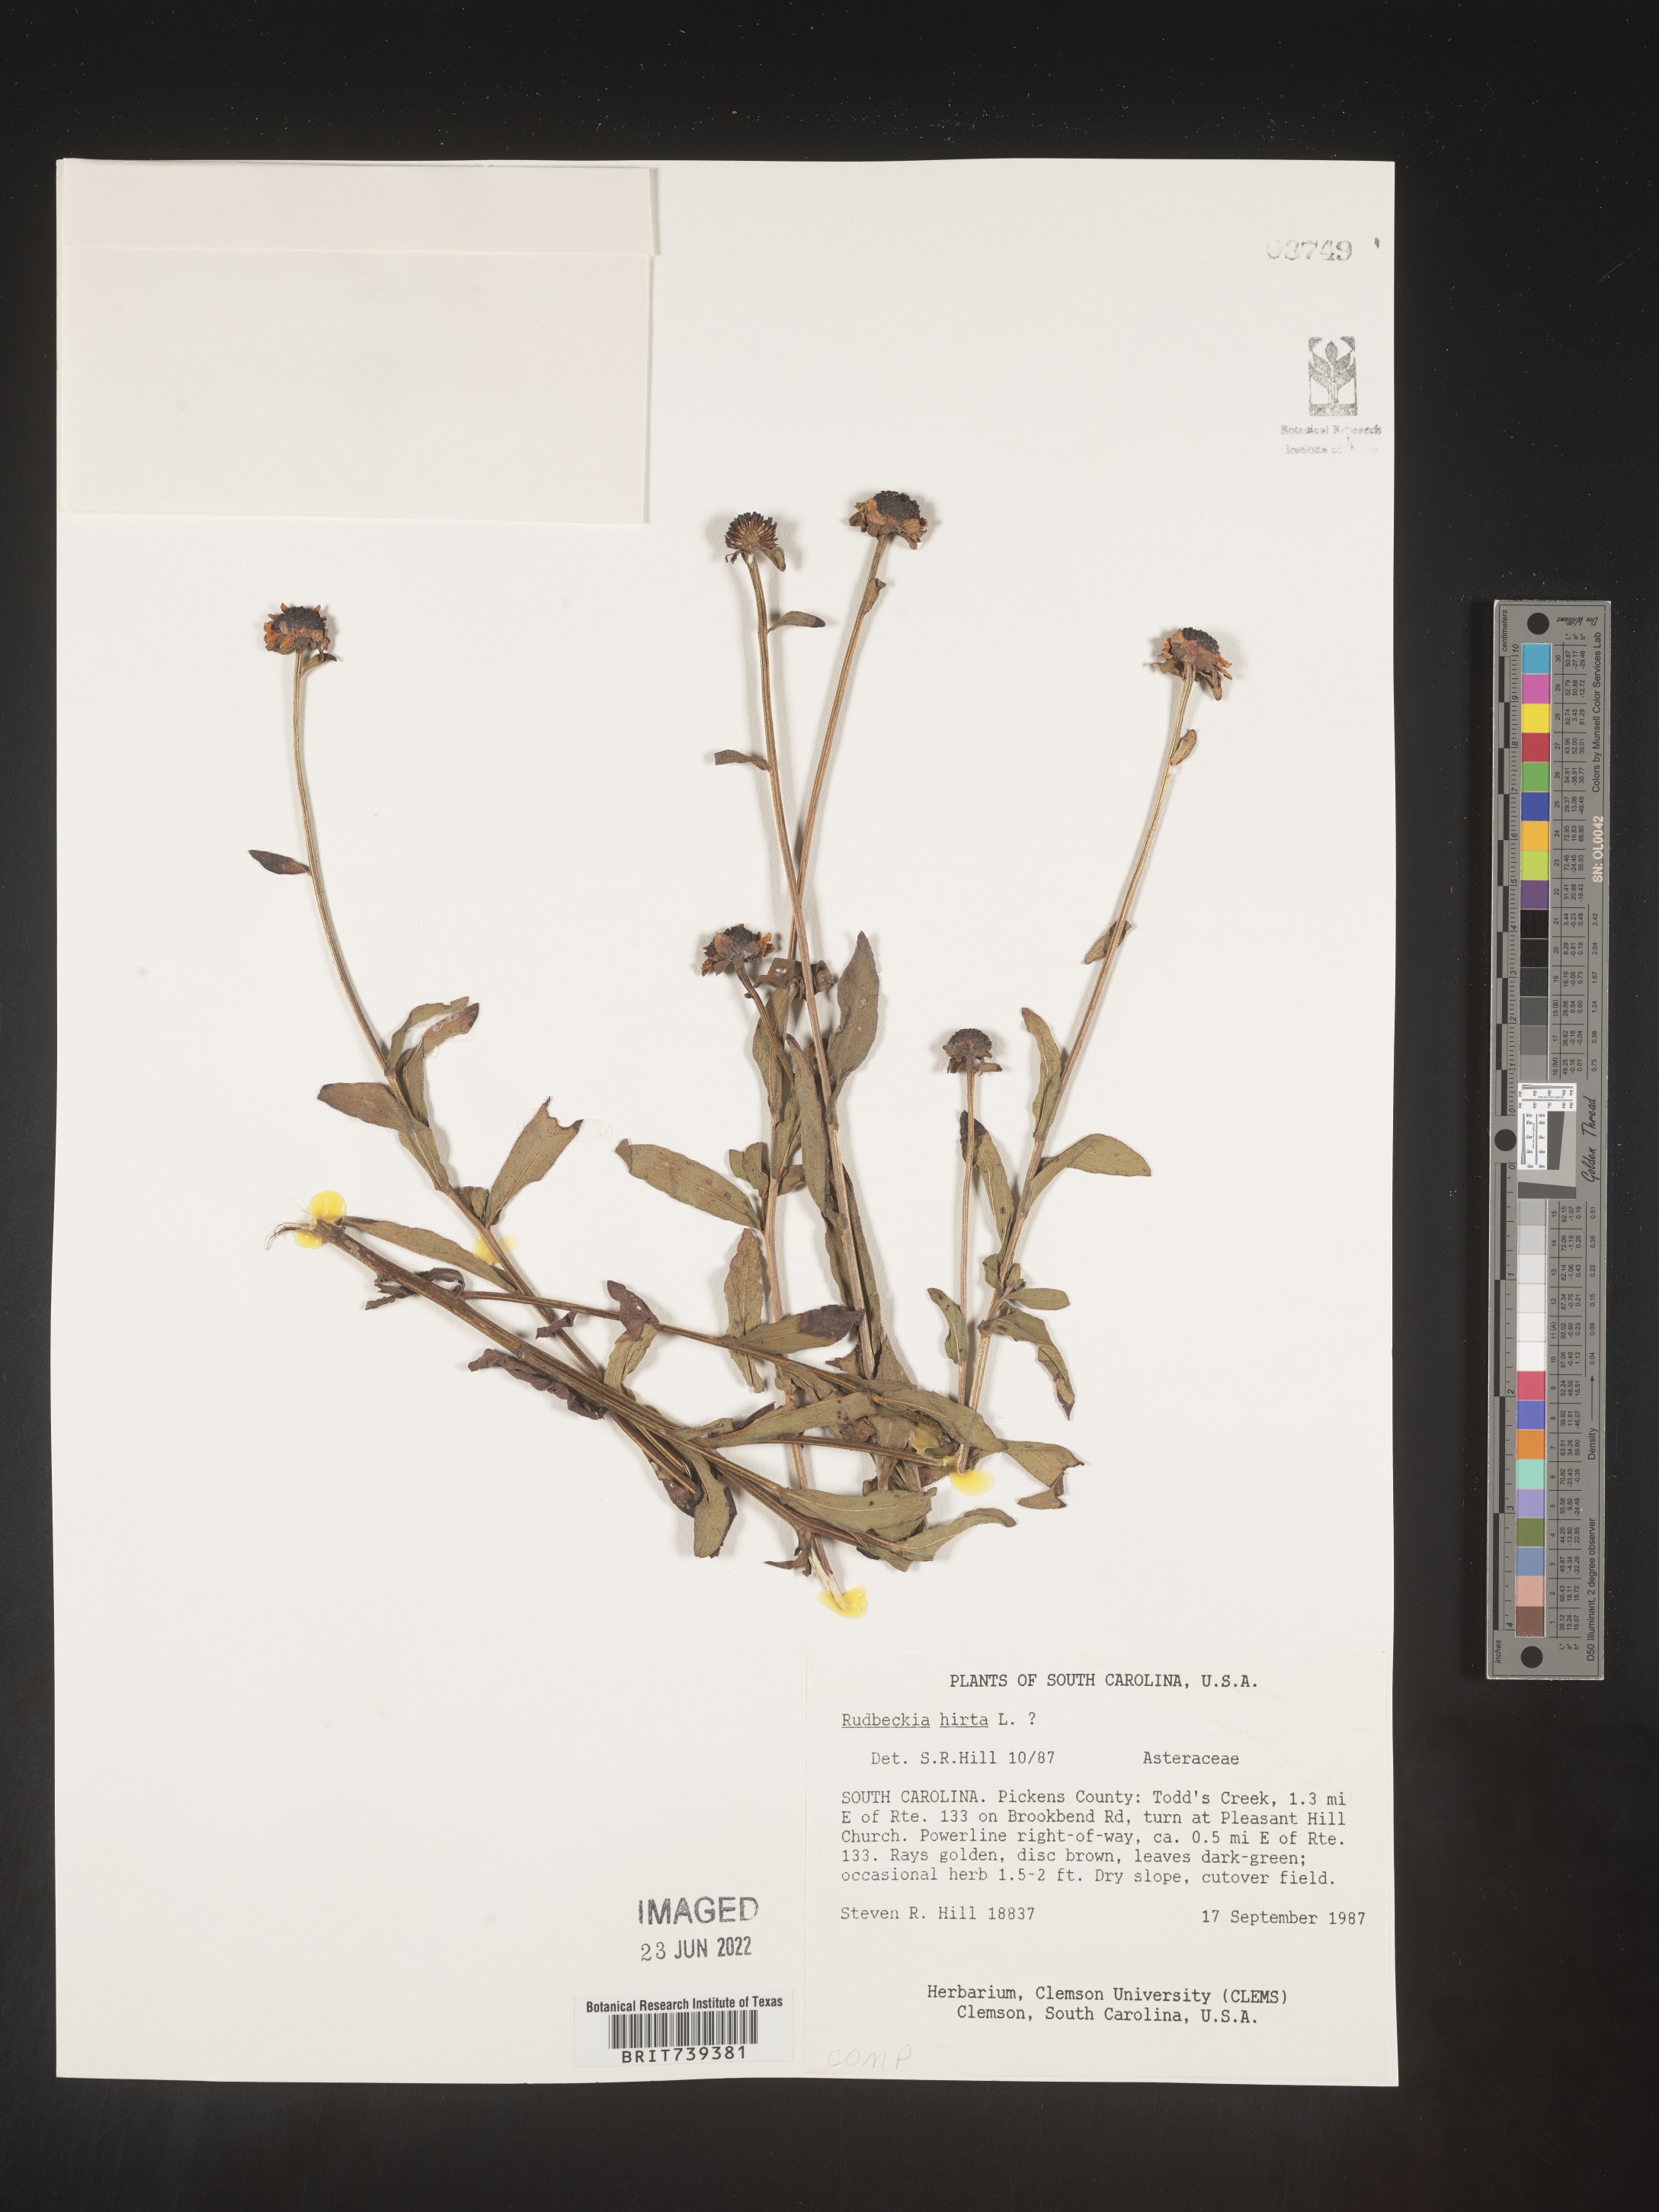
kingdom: Plantae
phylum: Tracheophyta
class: Magnoliopsida
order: Asterales
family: Asteraceae
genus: Rudbeckia
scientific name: Rudbeckia hirta
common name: Black-eyed-susan
